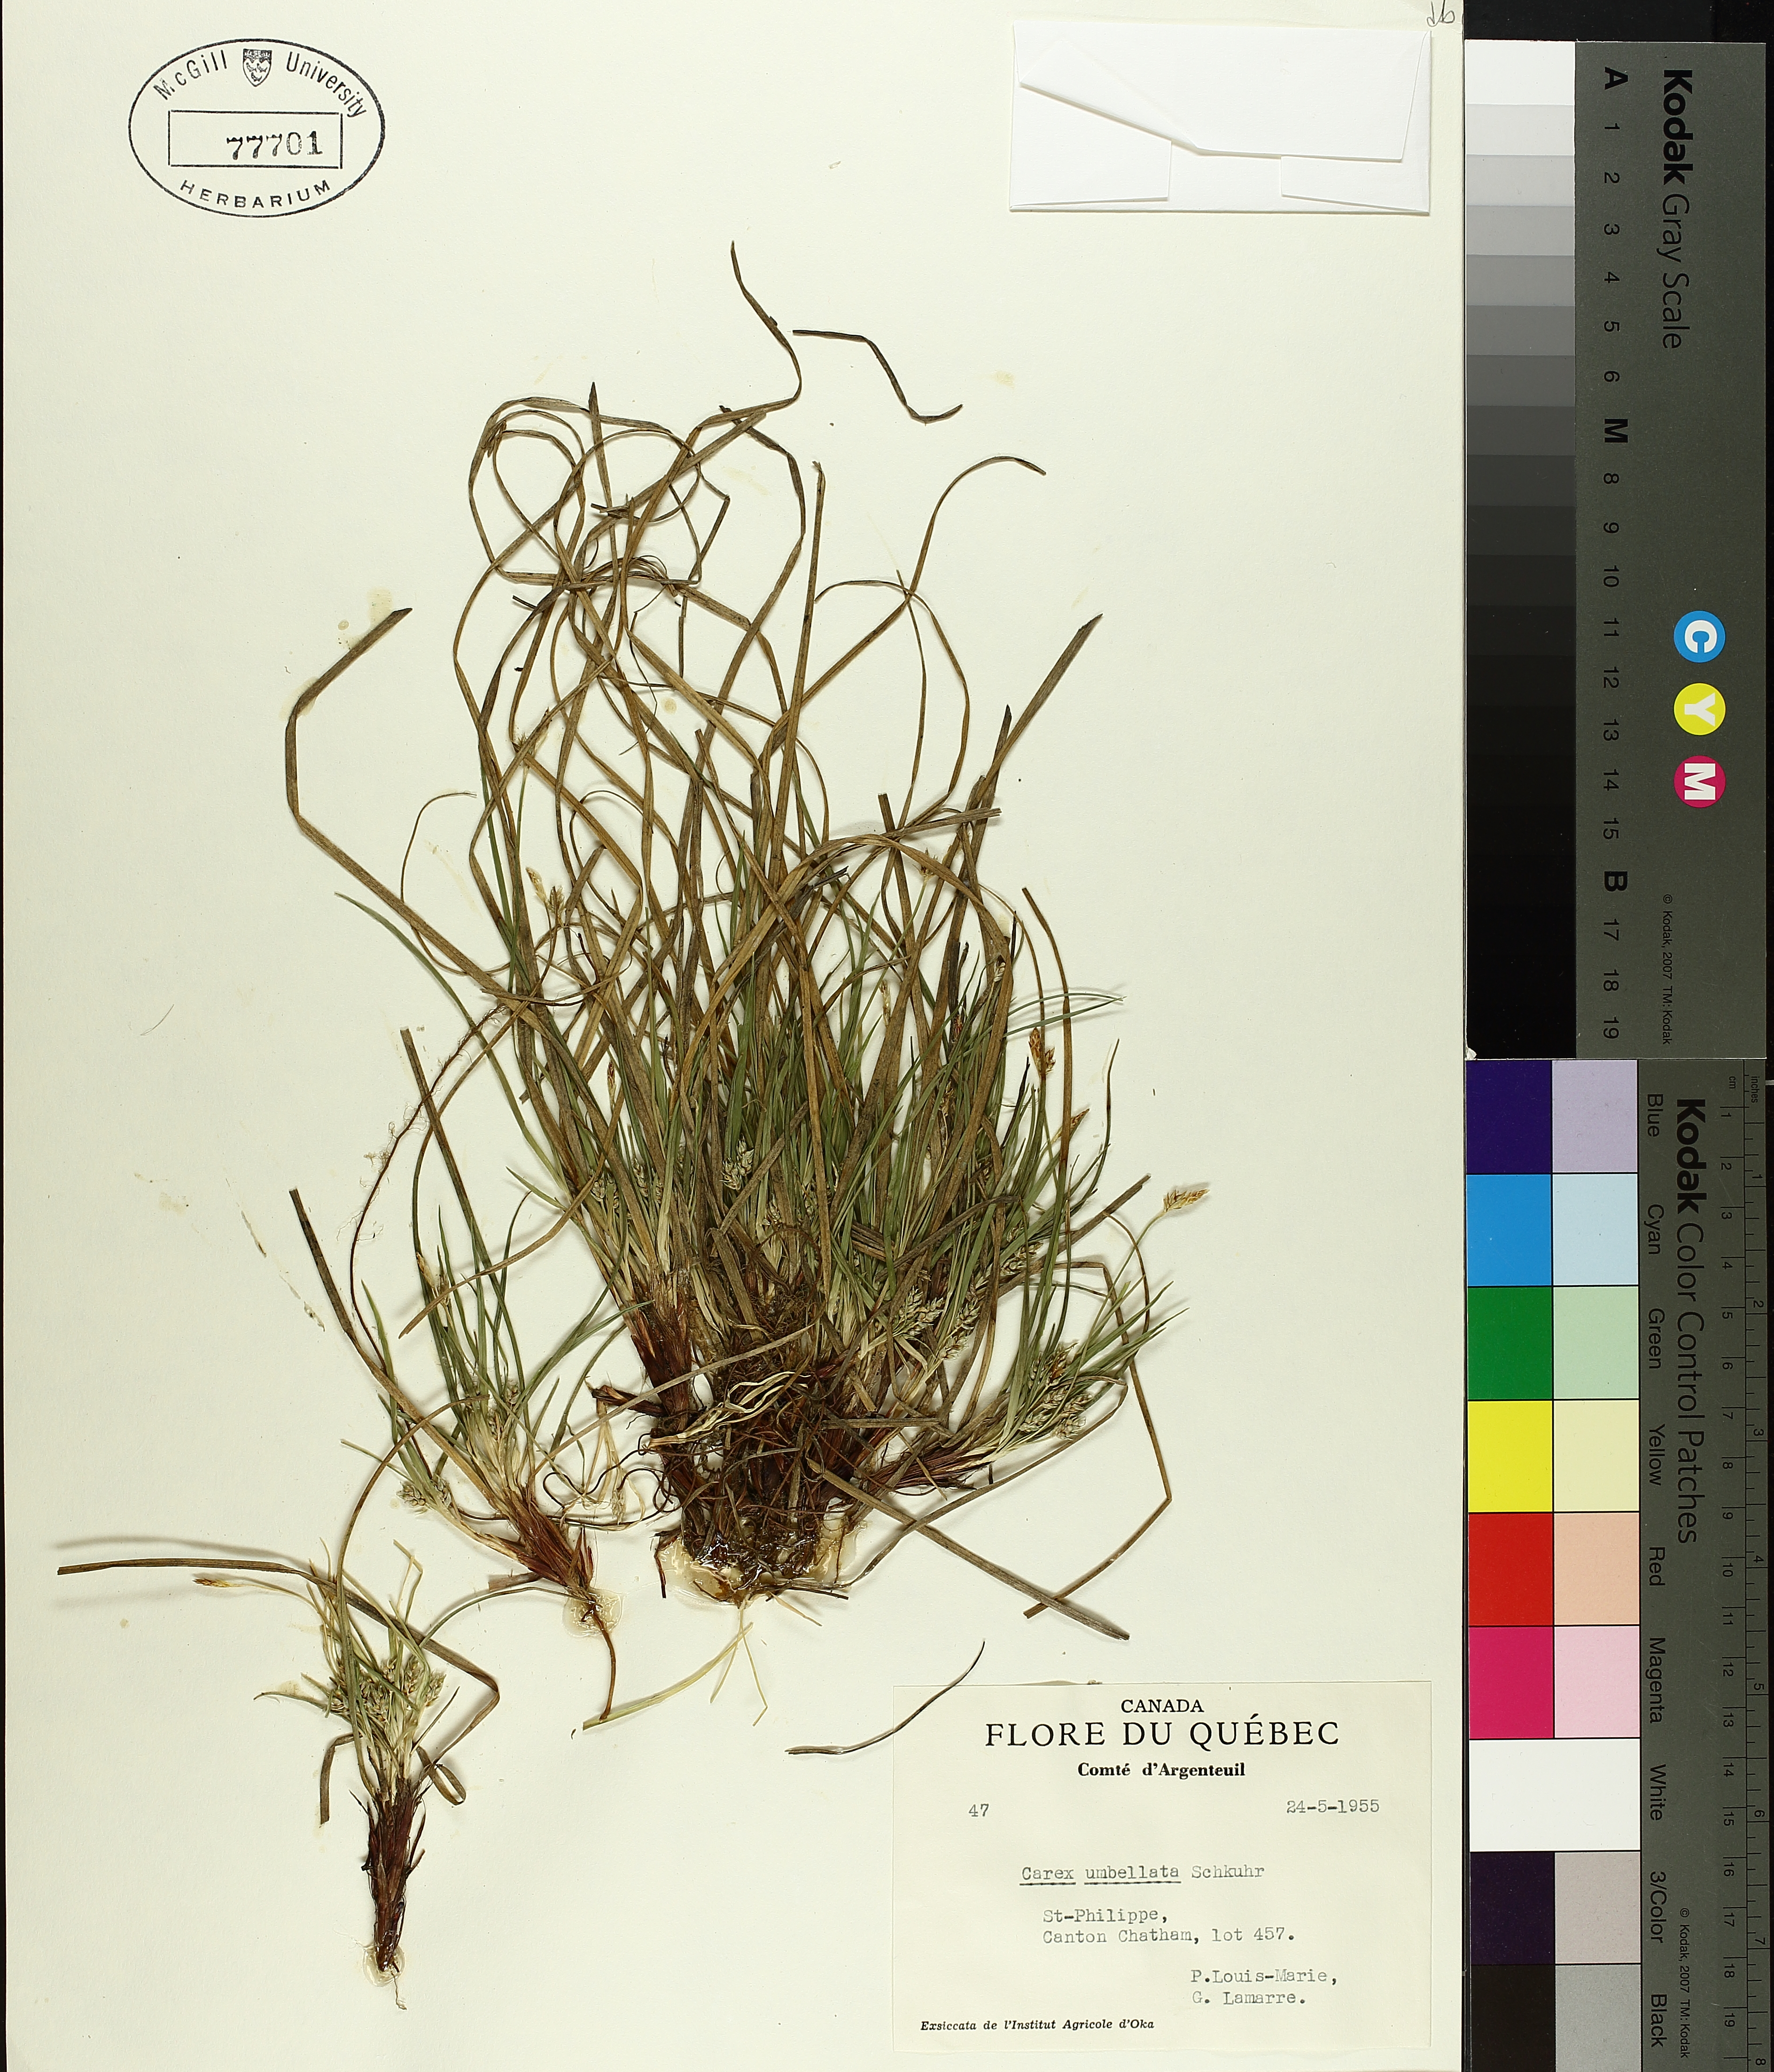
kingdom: Plantae
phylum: Tracheophyta
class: Liliopsida
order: Poales
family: Cyperaceae
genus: Carex
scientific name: Carex umbellata
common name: Early oak sedge
